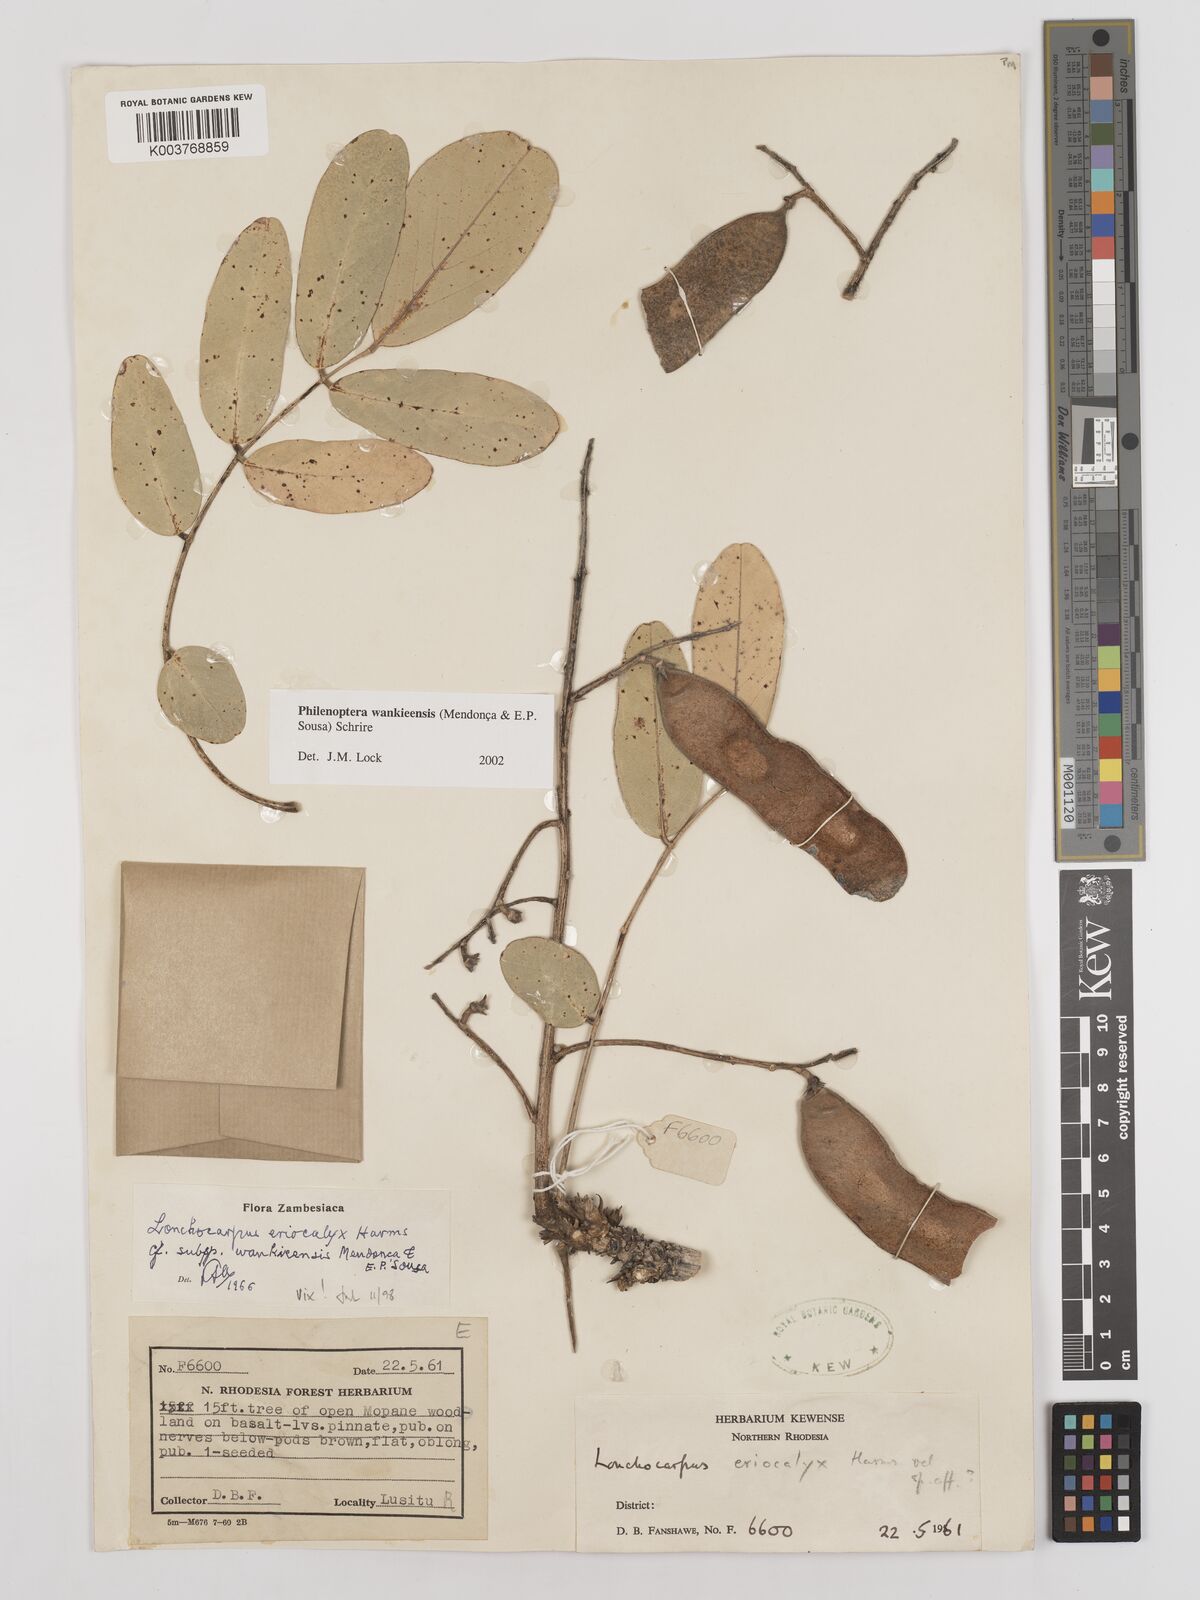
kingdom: Plantae
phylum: Tracheophyta
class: Magnoliopsida
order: Fabales
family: Fabaceae
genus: Philenoptera
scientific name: Philenoptera wankieensis
